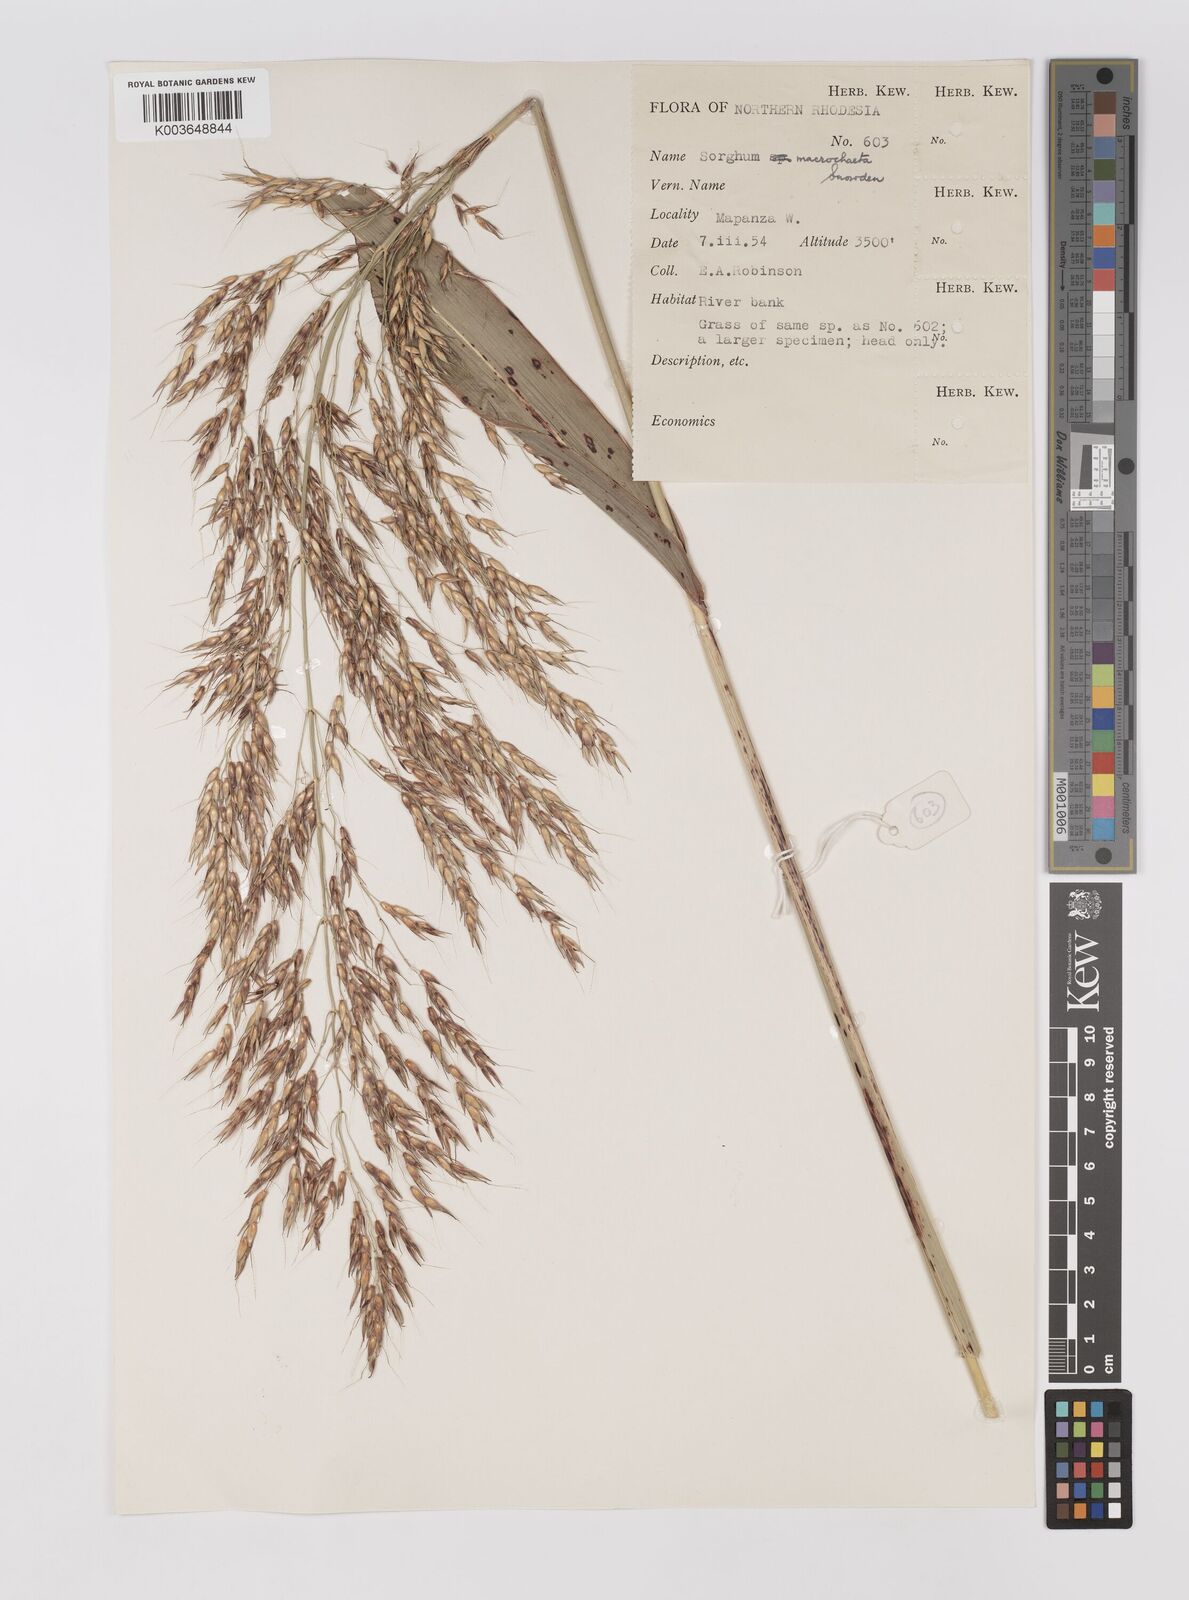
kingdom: Plantae
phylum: Tracheophyta
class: Liliopsida
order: Poales
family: Poaceae
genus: Sorghum
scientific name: Sorghum arundinaceum
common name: Sorghum
